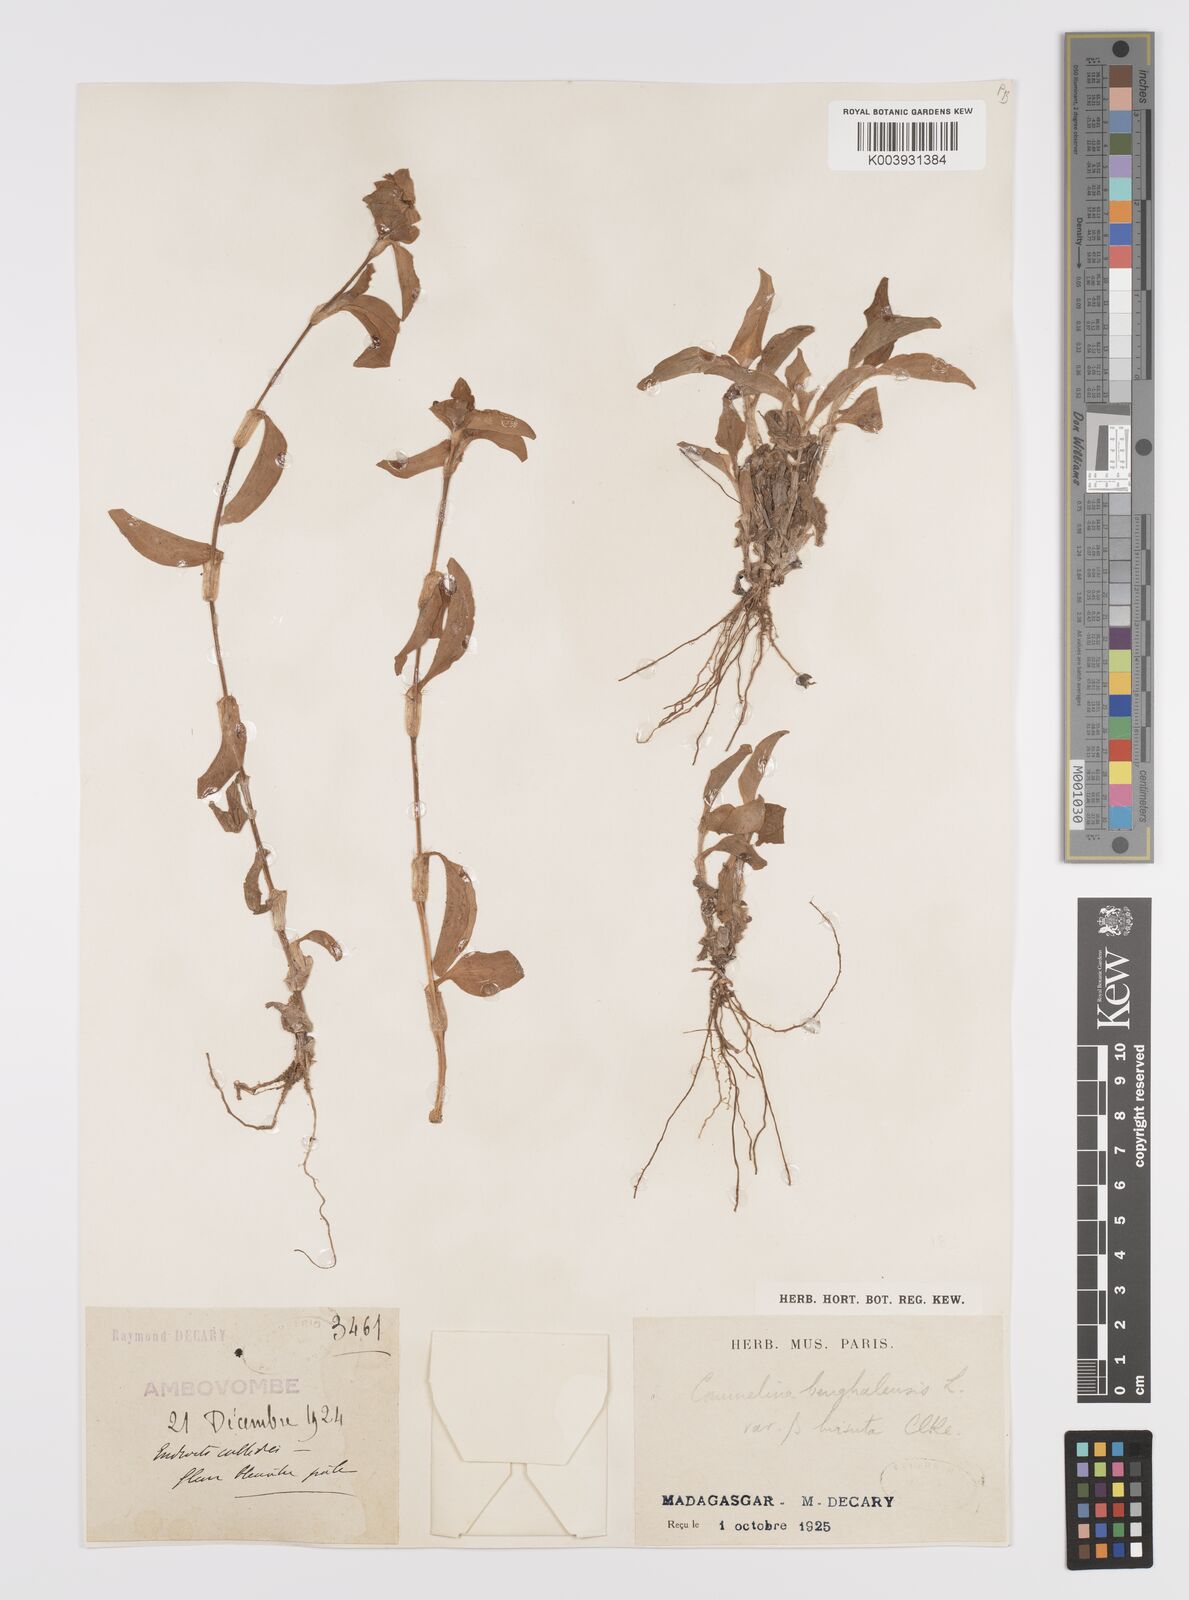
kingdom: Plantae
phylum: Tracheophyta
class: Liliopsida
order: Commelinales
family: Commelinaceae
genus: Commelina
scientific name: Commelina benghalensis
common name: Jio
